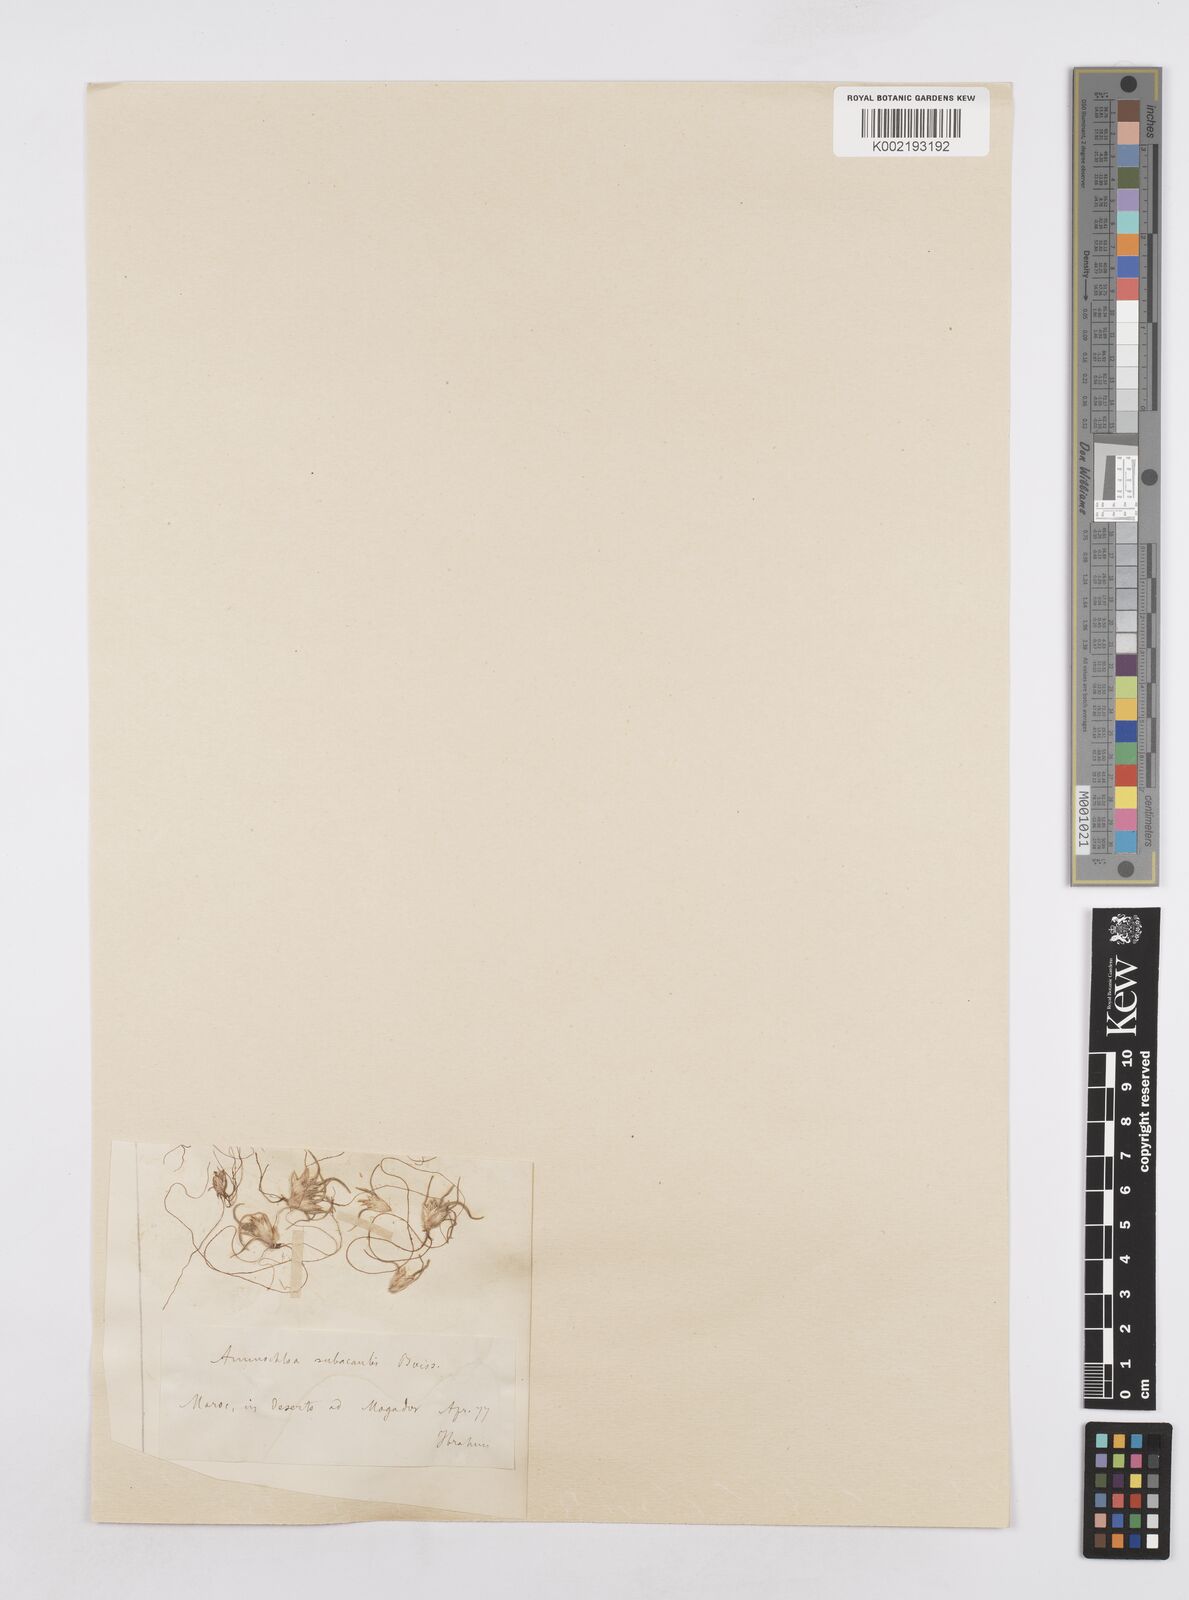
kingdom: Plantae
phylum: Tracheophyta
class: Liliopsida
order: Poales
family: Poaceae
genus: Ammochloa
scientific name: Ammochloa palaestina
